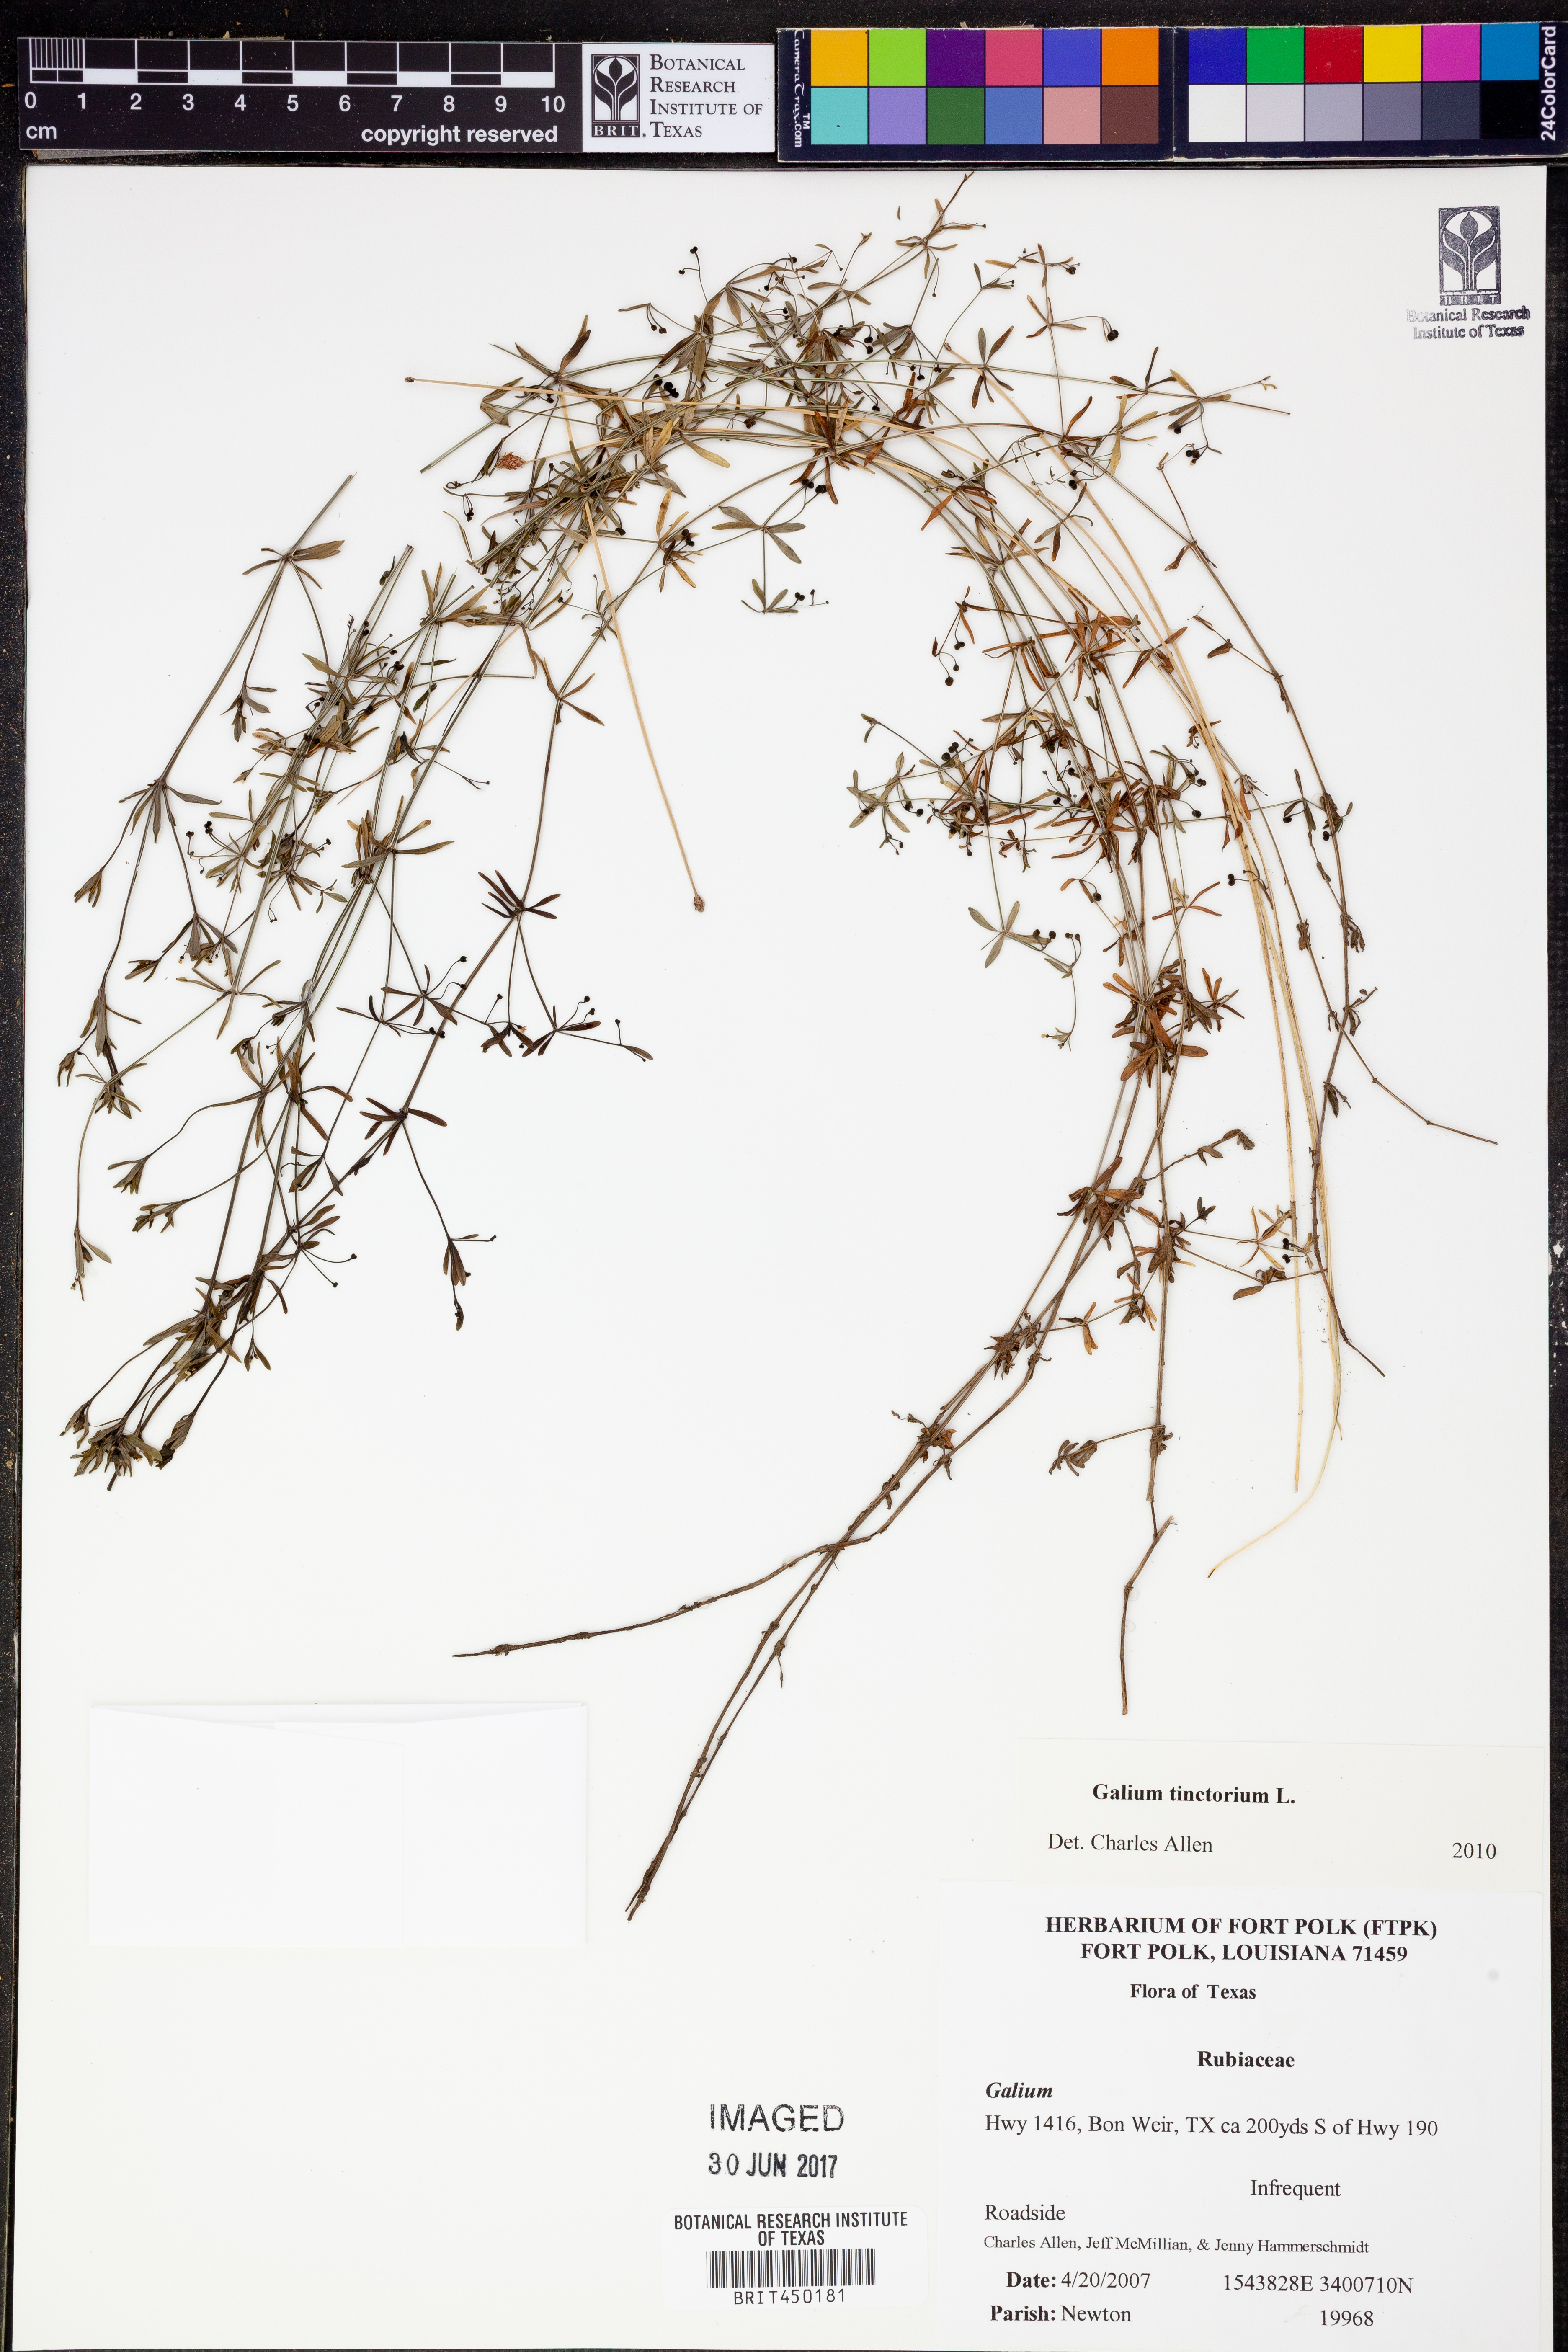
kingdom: Plantae
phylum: Tracheophyta
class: Magnoliopsida
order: Gentianales
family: Rubiaceae
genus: Asperula
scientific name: Asperula tinctoria
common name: Dyer's woodruff
